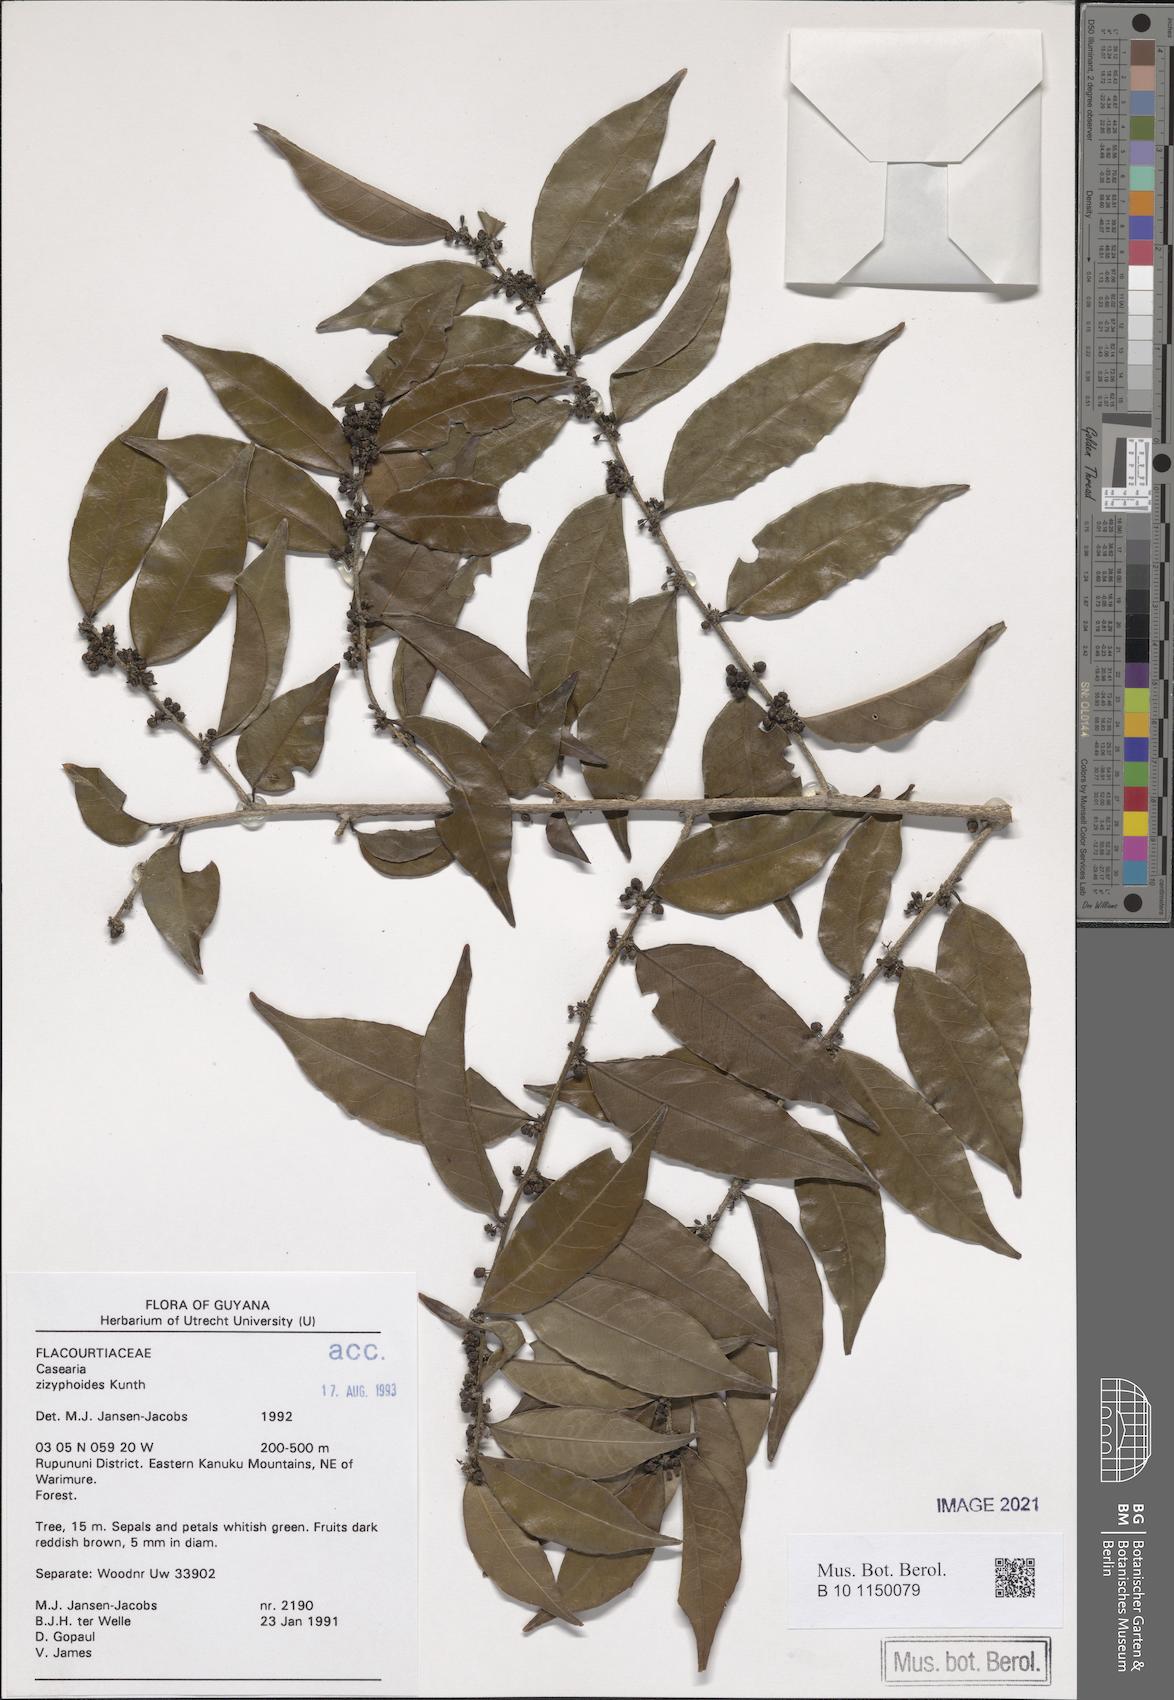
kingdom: Plantae
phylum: Tracheophyta
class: Magnoliopsida
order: Malpighiales
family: Salicaceae
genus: Casearia
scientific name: Casearia zizyphoides
